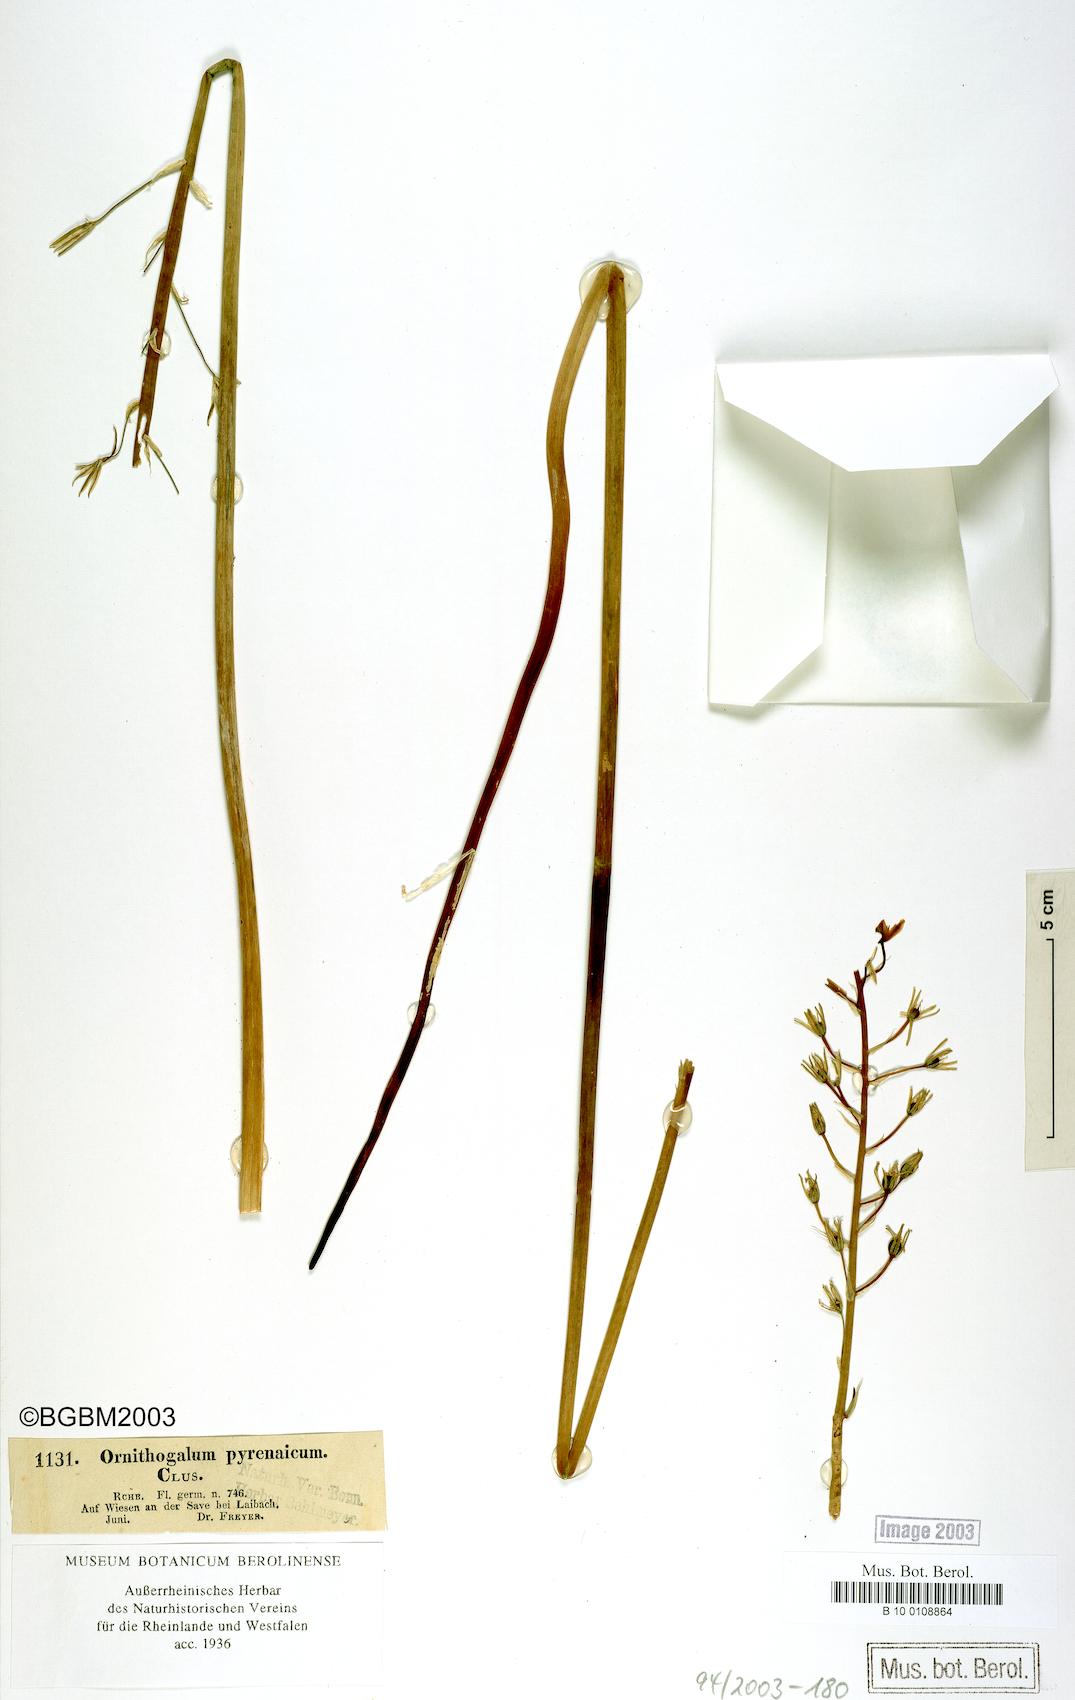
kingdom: Plantae
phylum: Tracheophyta
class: Liliopsida
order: Asparagales
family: Asparagaceae
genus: Ornithogalum
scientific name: Ornithogalum pyrenaicum
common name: Spiked star-of-bethlehem
